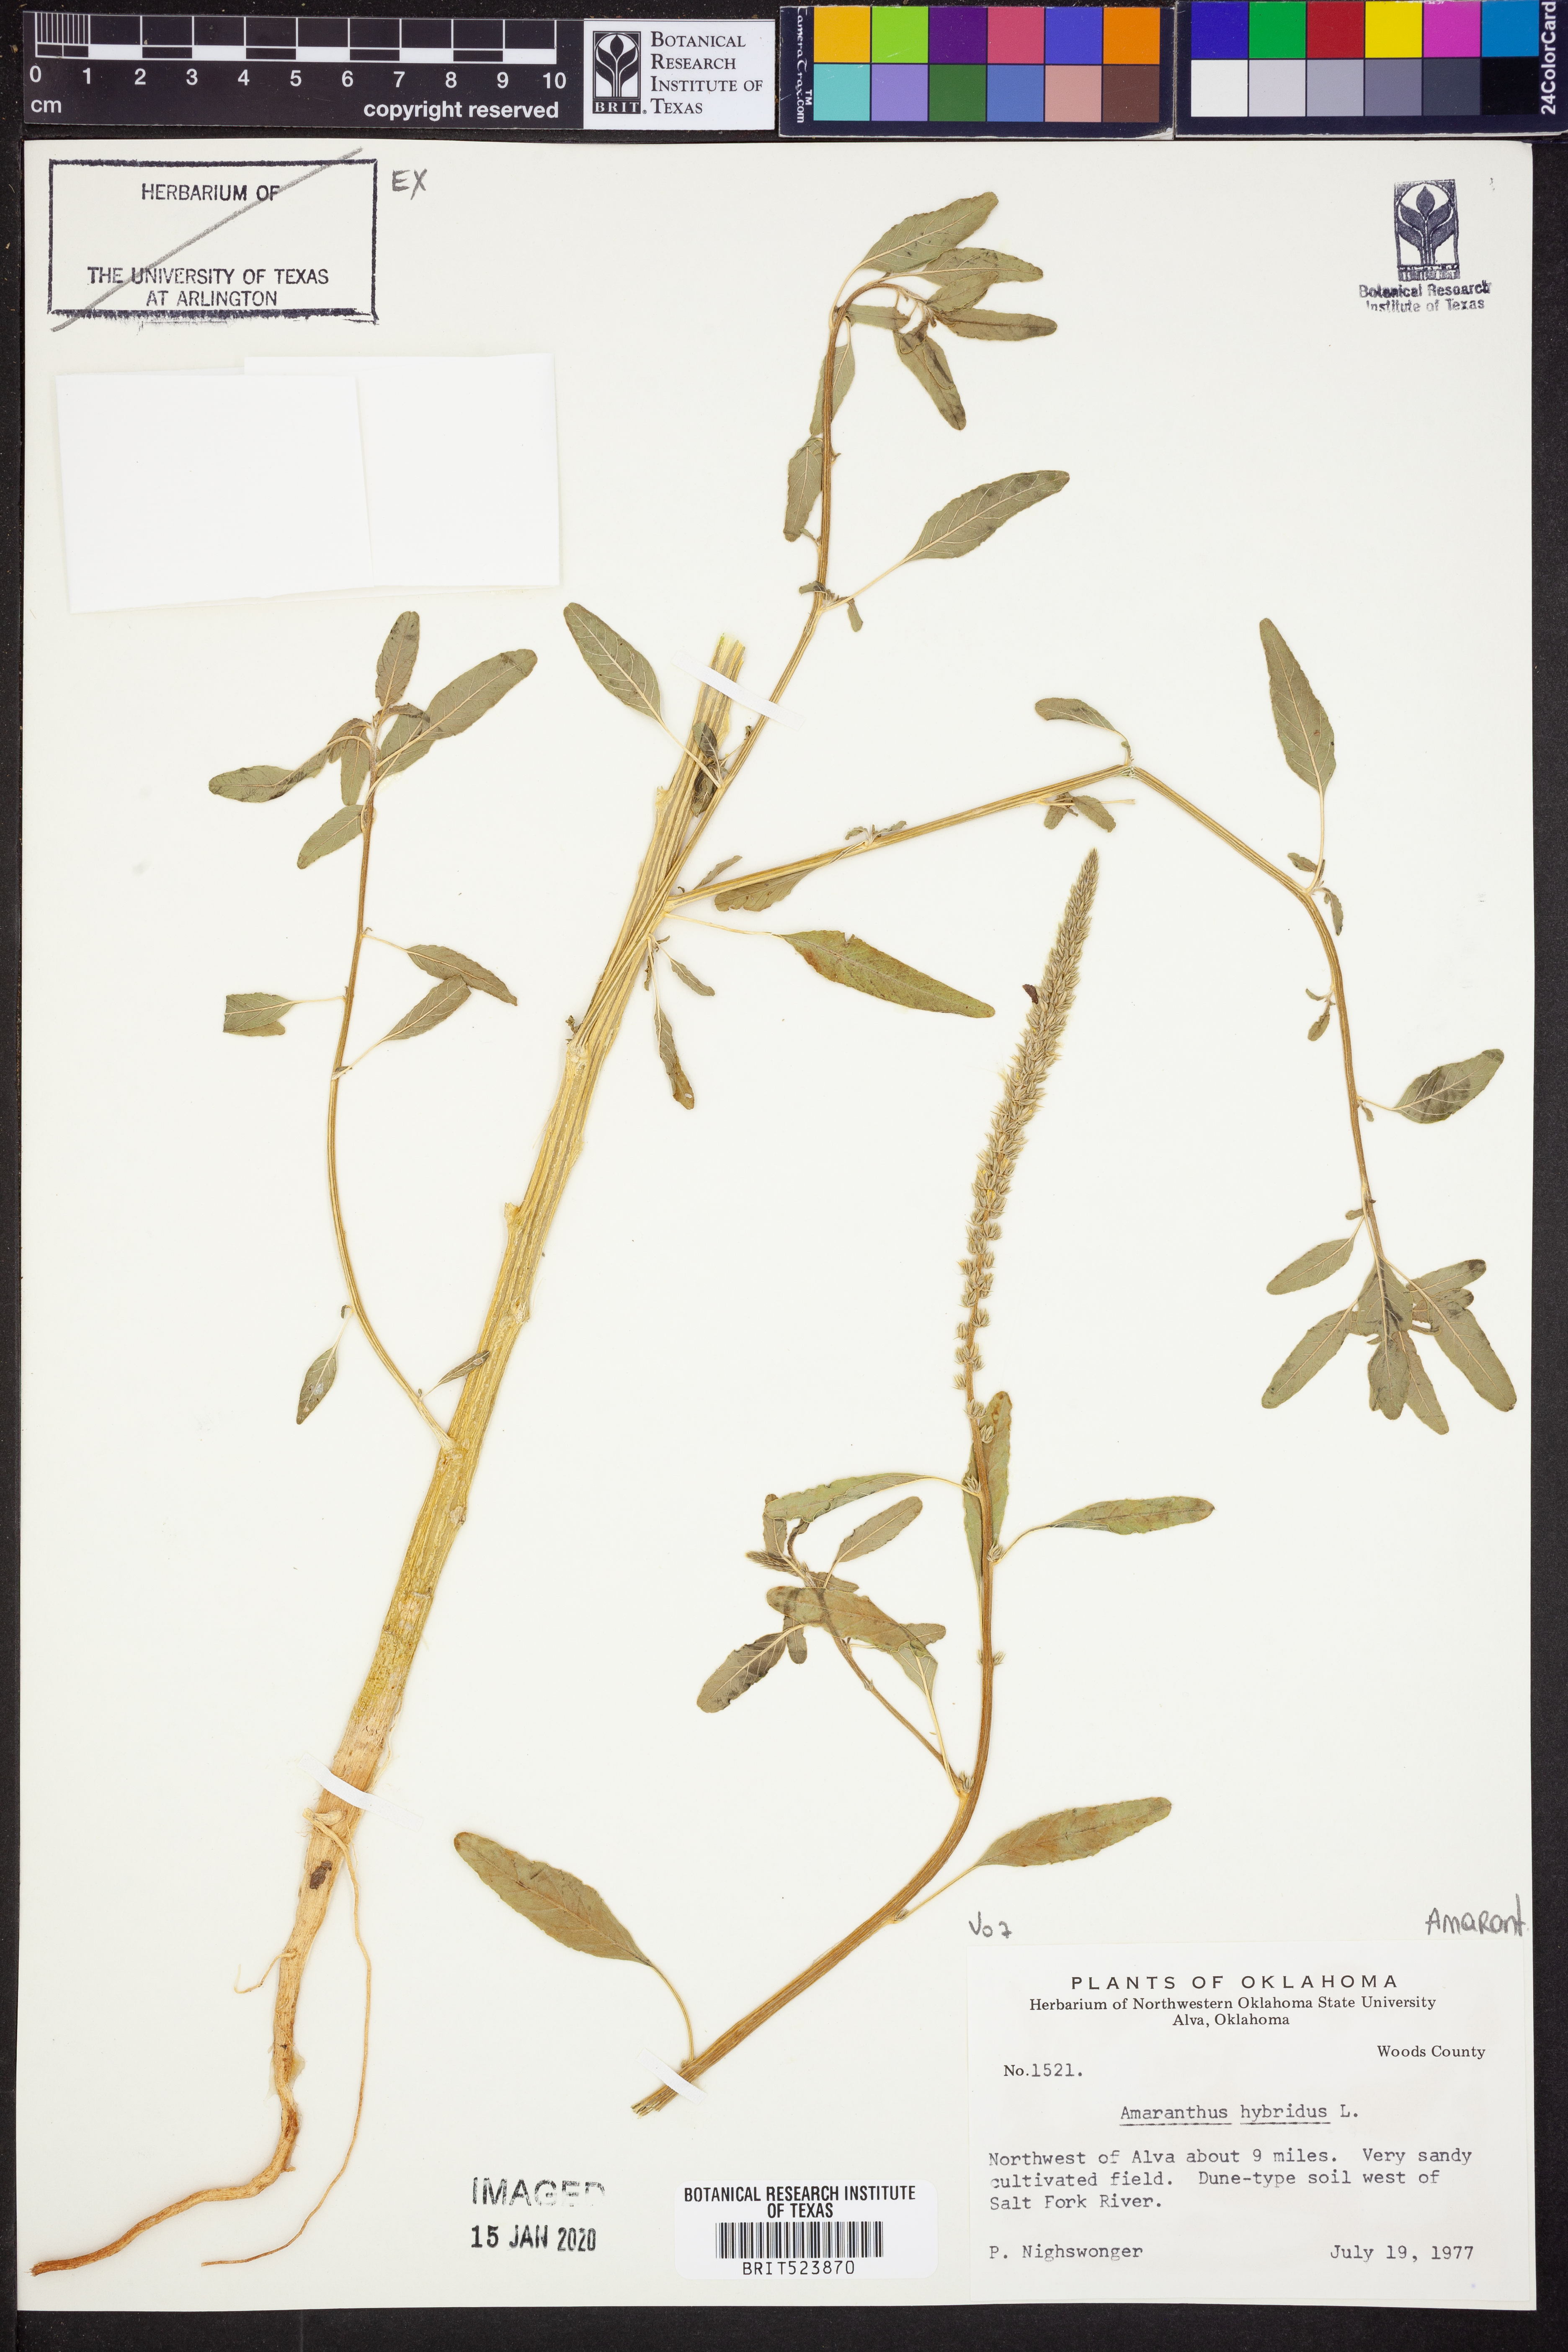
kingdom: Plantae
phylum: Tracheophyta
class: Magnoliopsida
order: Caryophyllales
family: Amaranthaceae
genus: Amaranthus
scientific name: Amaranthus hybridus
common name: Green amaranth
